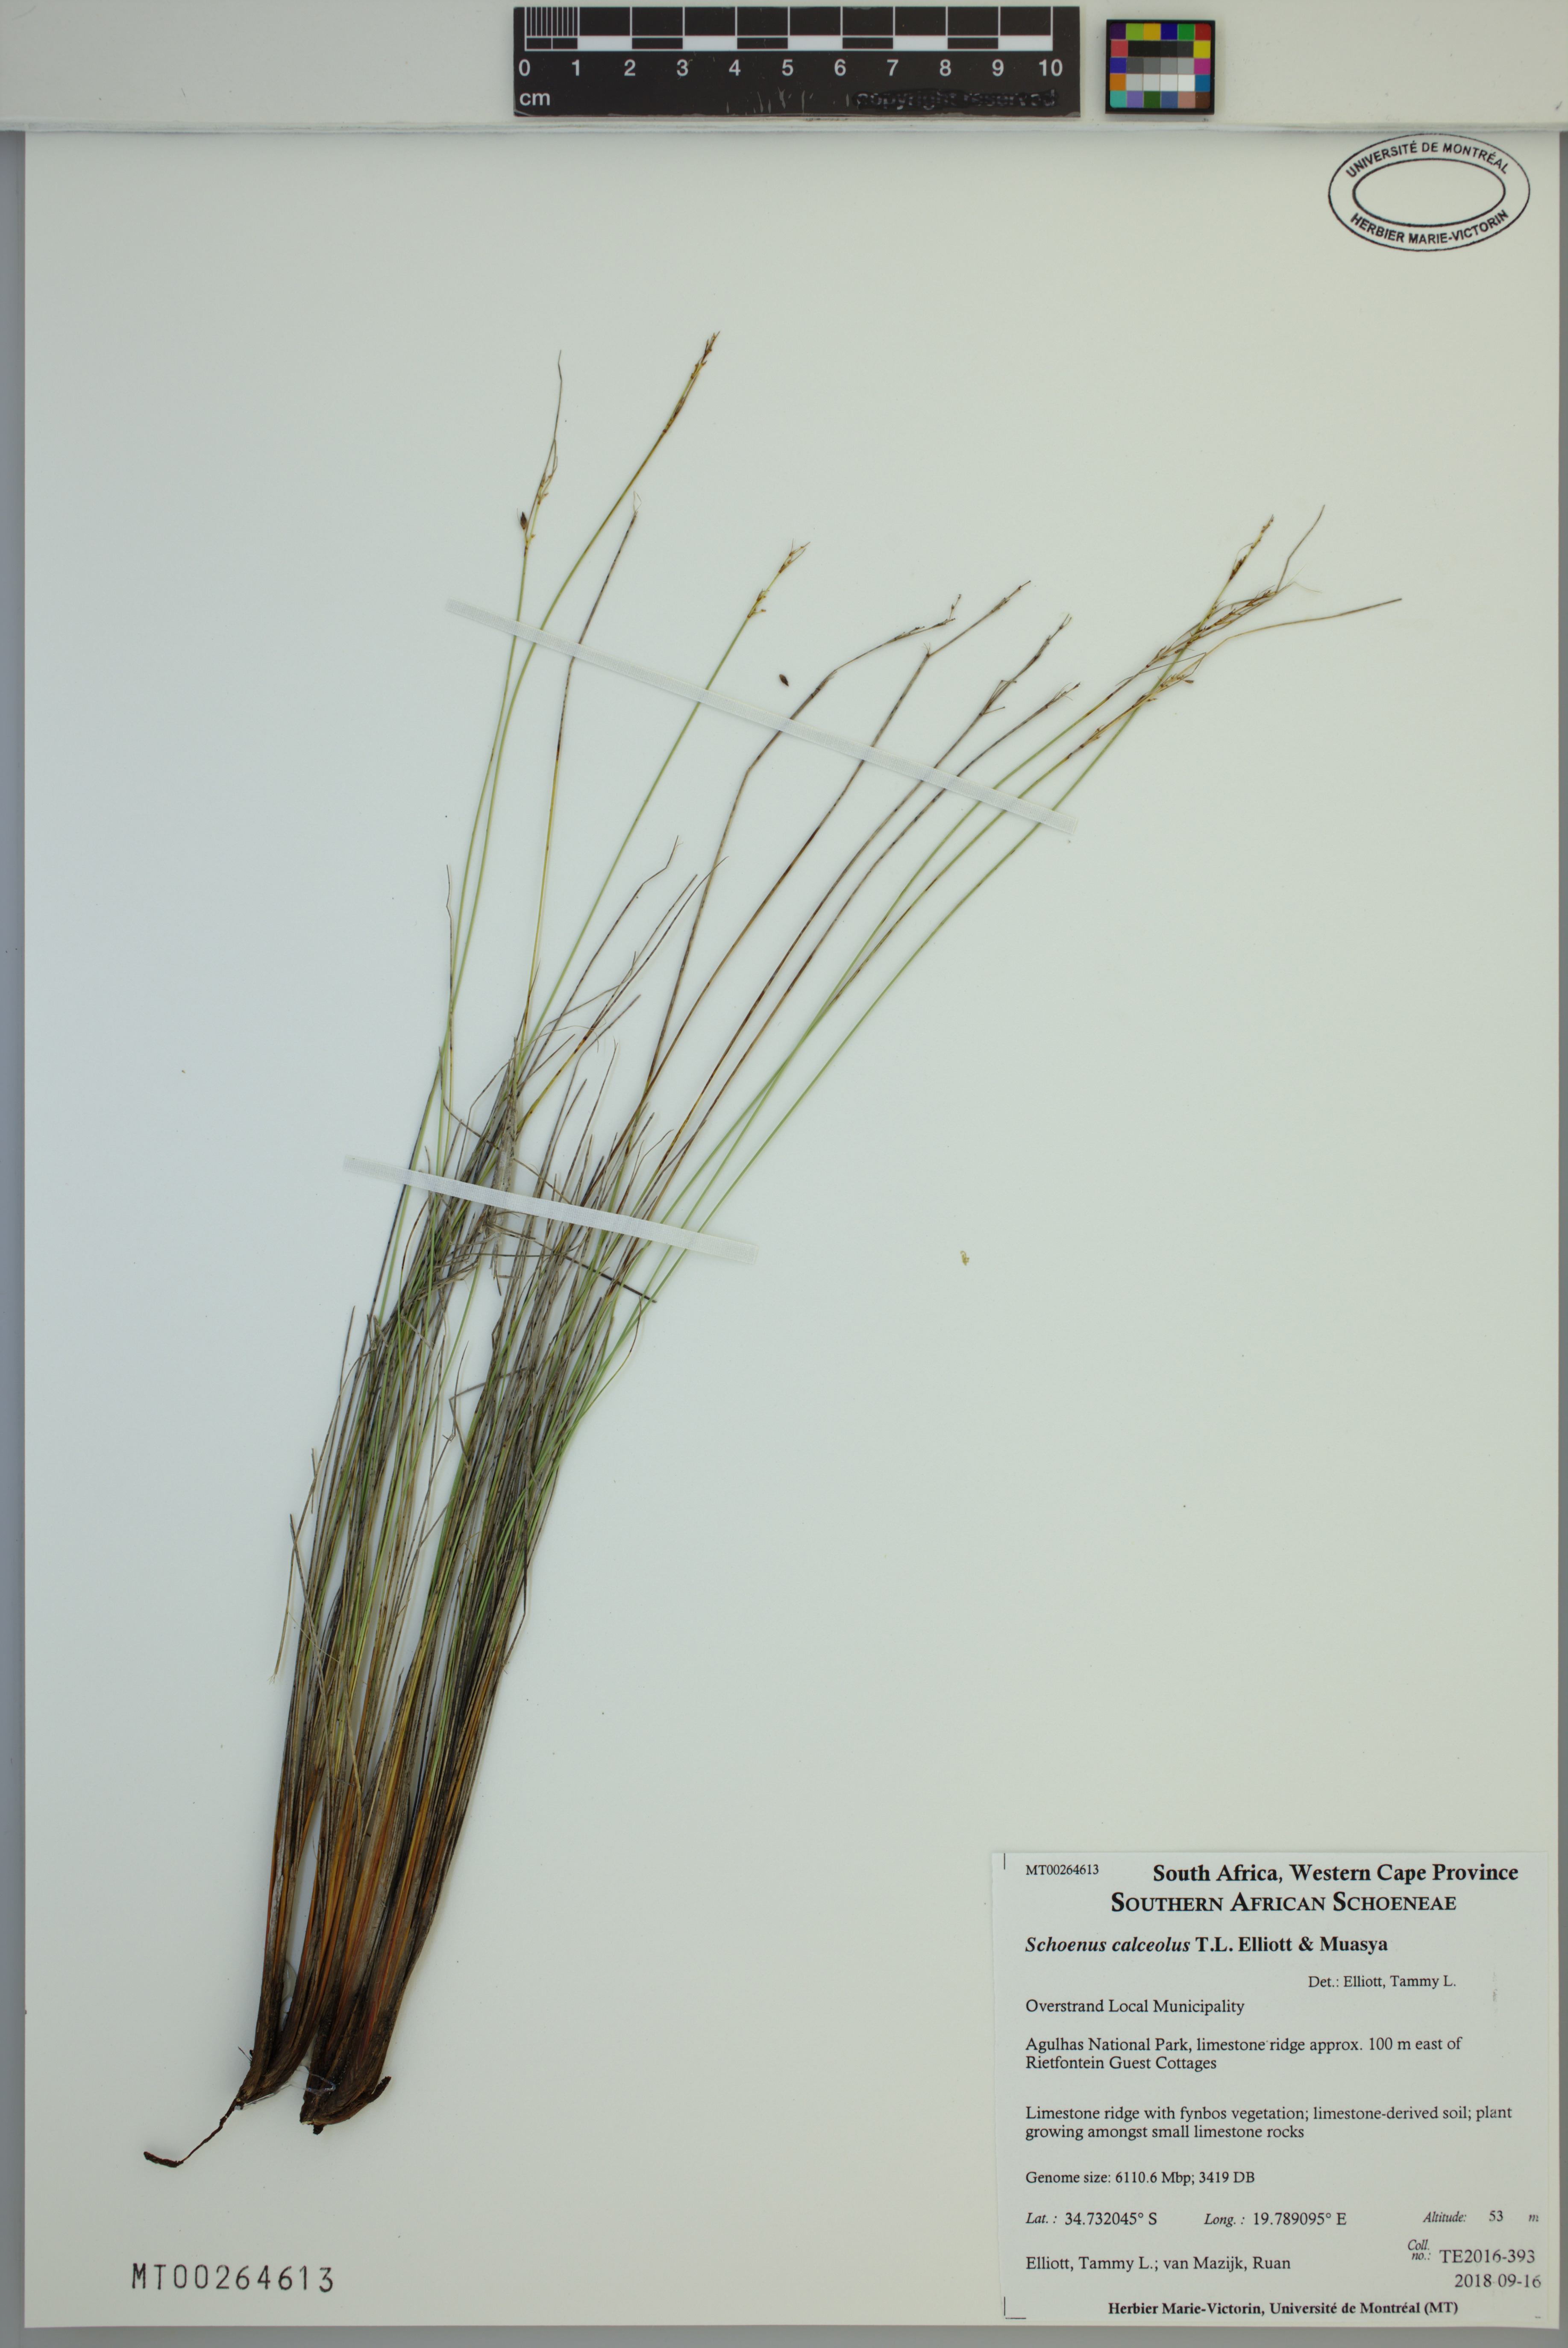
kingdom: Plantae
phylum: Tracheophyta
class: Liliopsida
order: Poales
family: Cyperaceae
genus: Schoenus
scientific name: Schoenus calceolus
